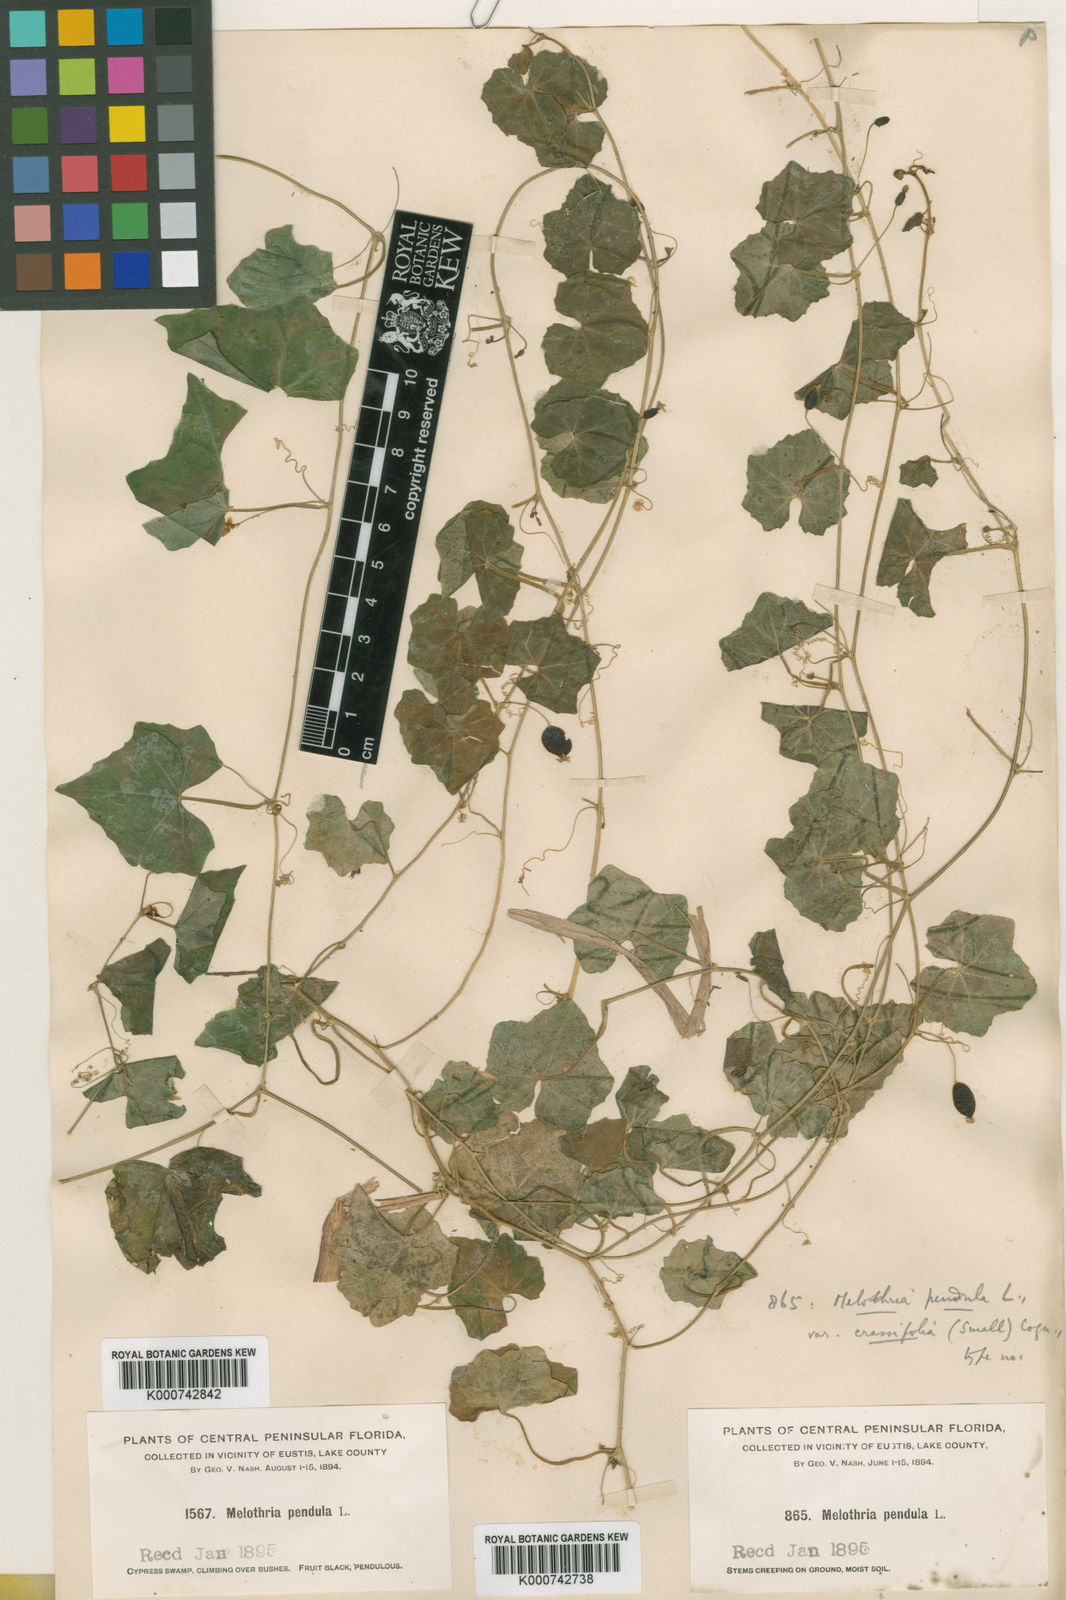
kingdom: Plantae
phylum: Tracheophyta
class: Magnoliopsida
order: Cucurbitales
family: Cucurbitaceae
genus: Melothria
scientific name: Melothria pendula
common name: Creeping-cucumber
